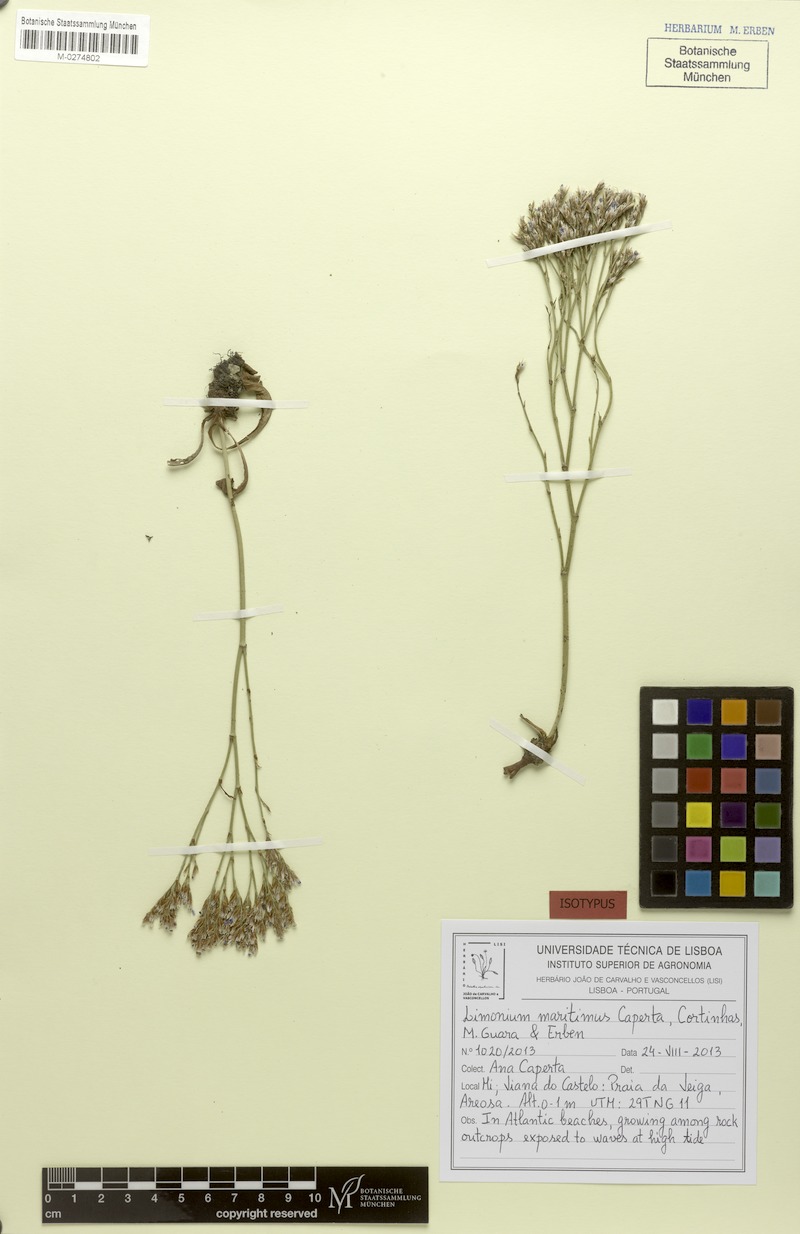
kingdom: Plantae
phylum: Tracheophyta
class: Magnoliopsida
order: Caryophyllales
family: Plumbaginaceae
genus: Limonium
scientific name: Limonium maritimum
